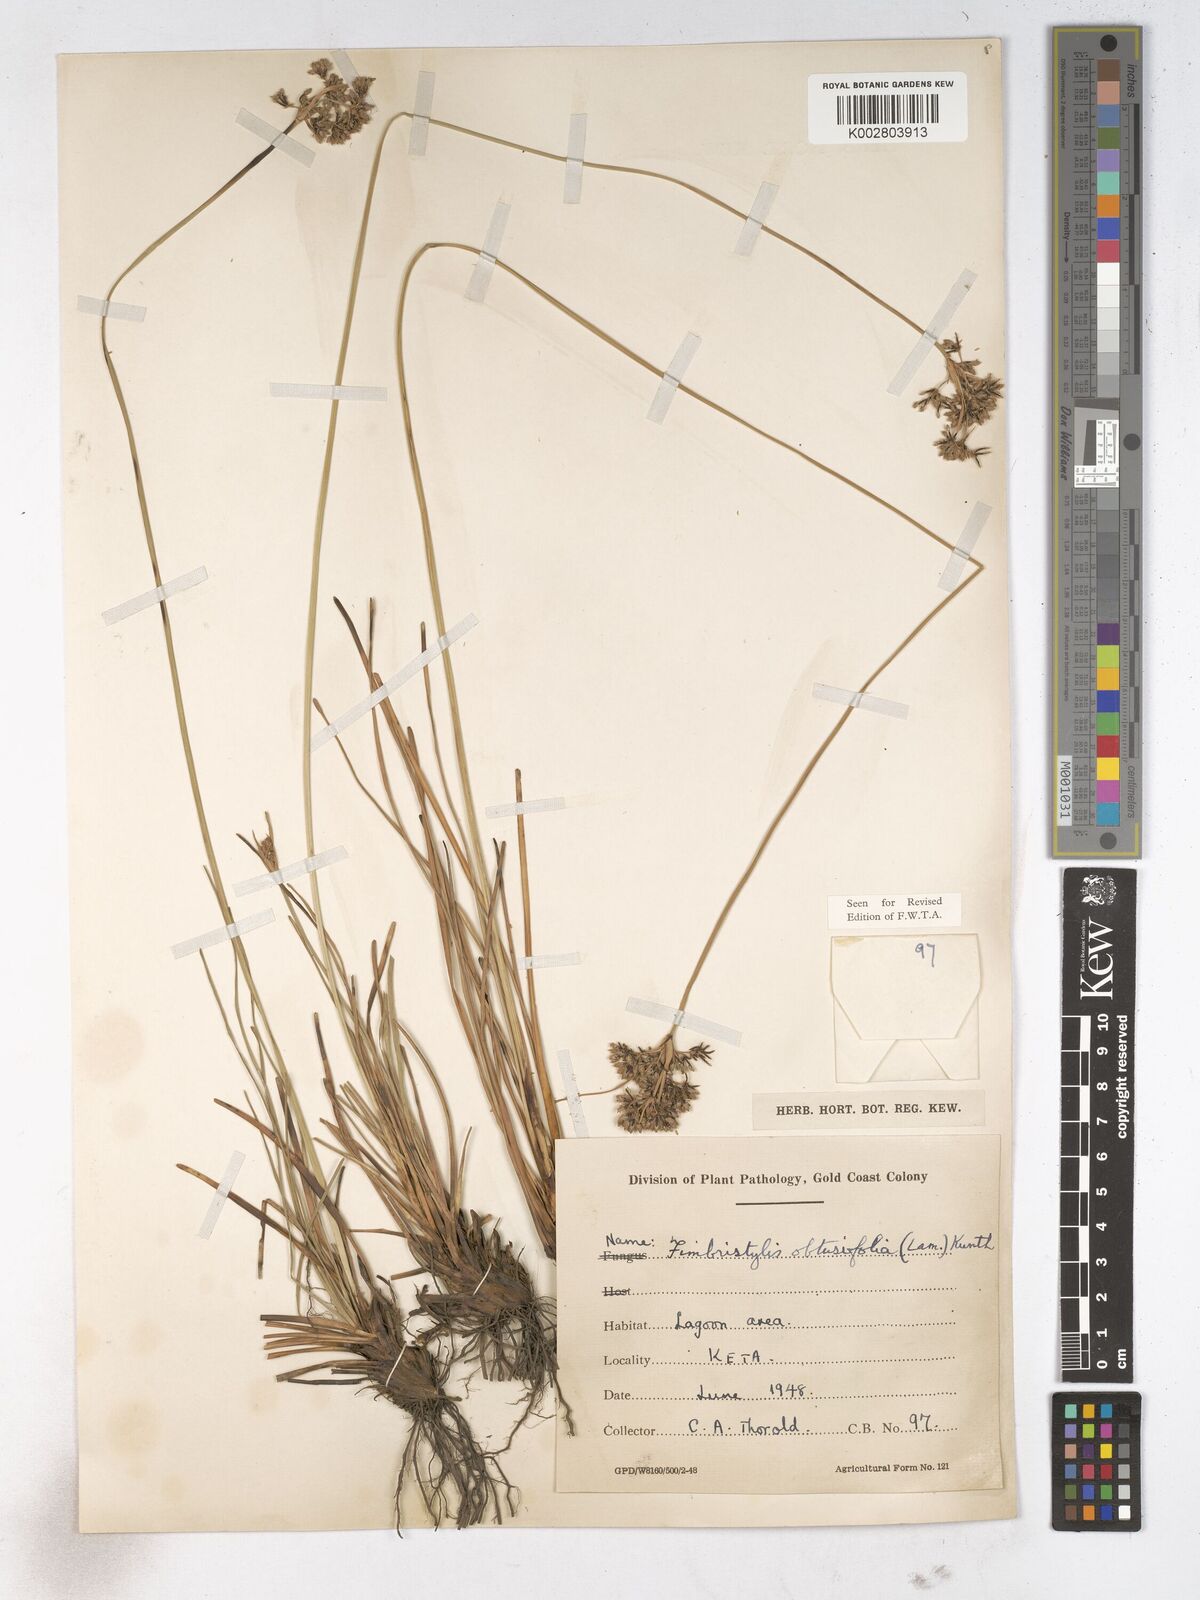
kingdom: Plantae
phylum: Tracheophyta
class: Liliopsida
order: Poales
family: Cyperaceae
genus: Fimbristylis
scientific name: Fimbristylis cymosa
